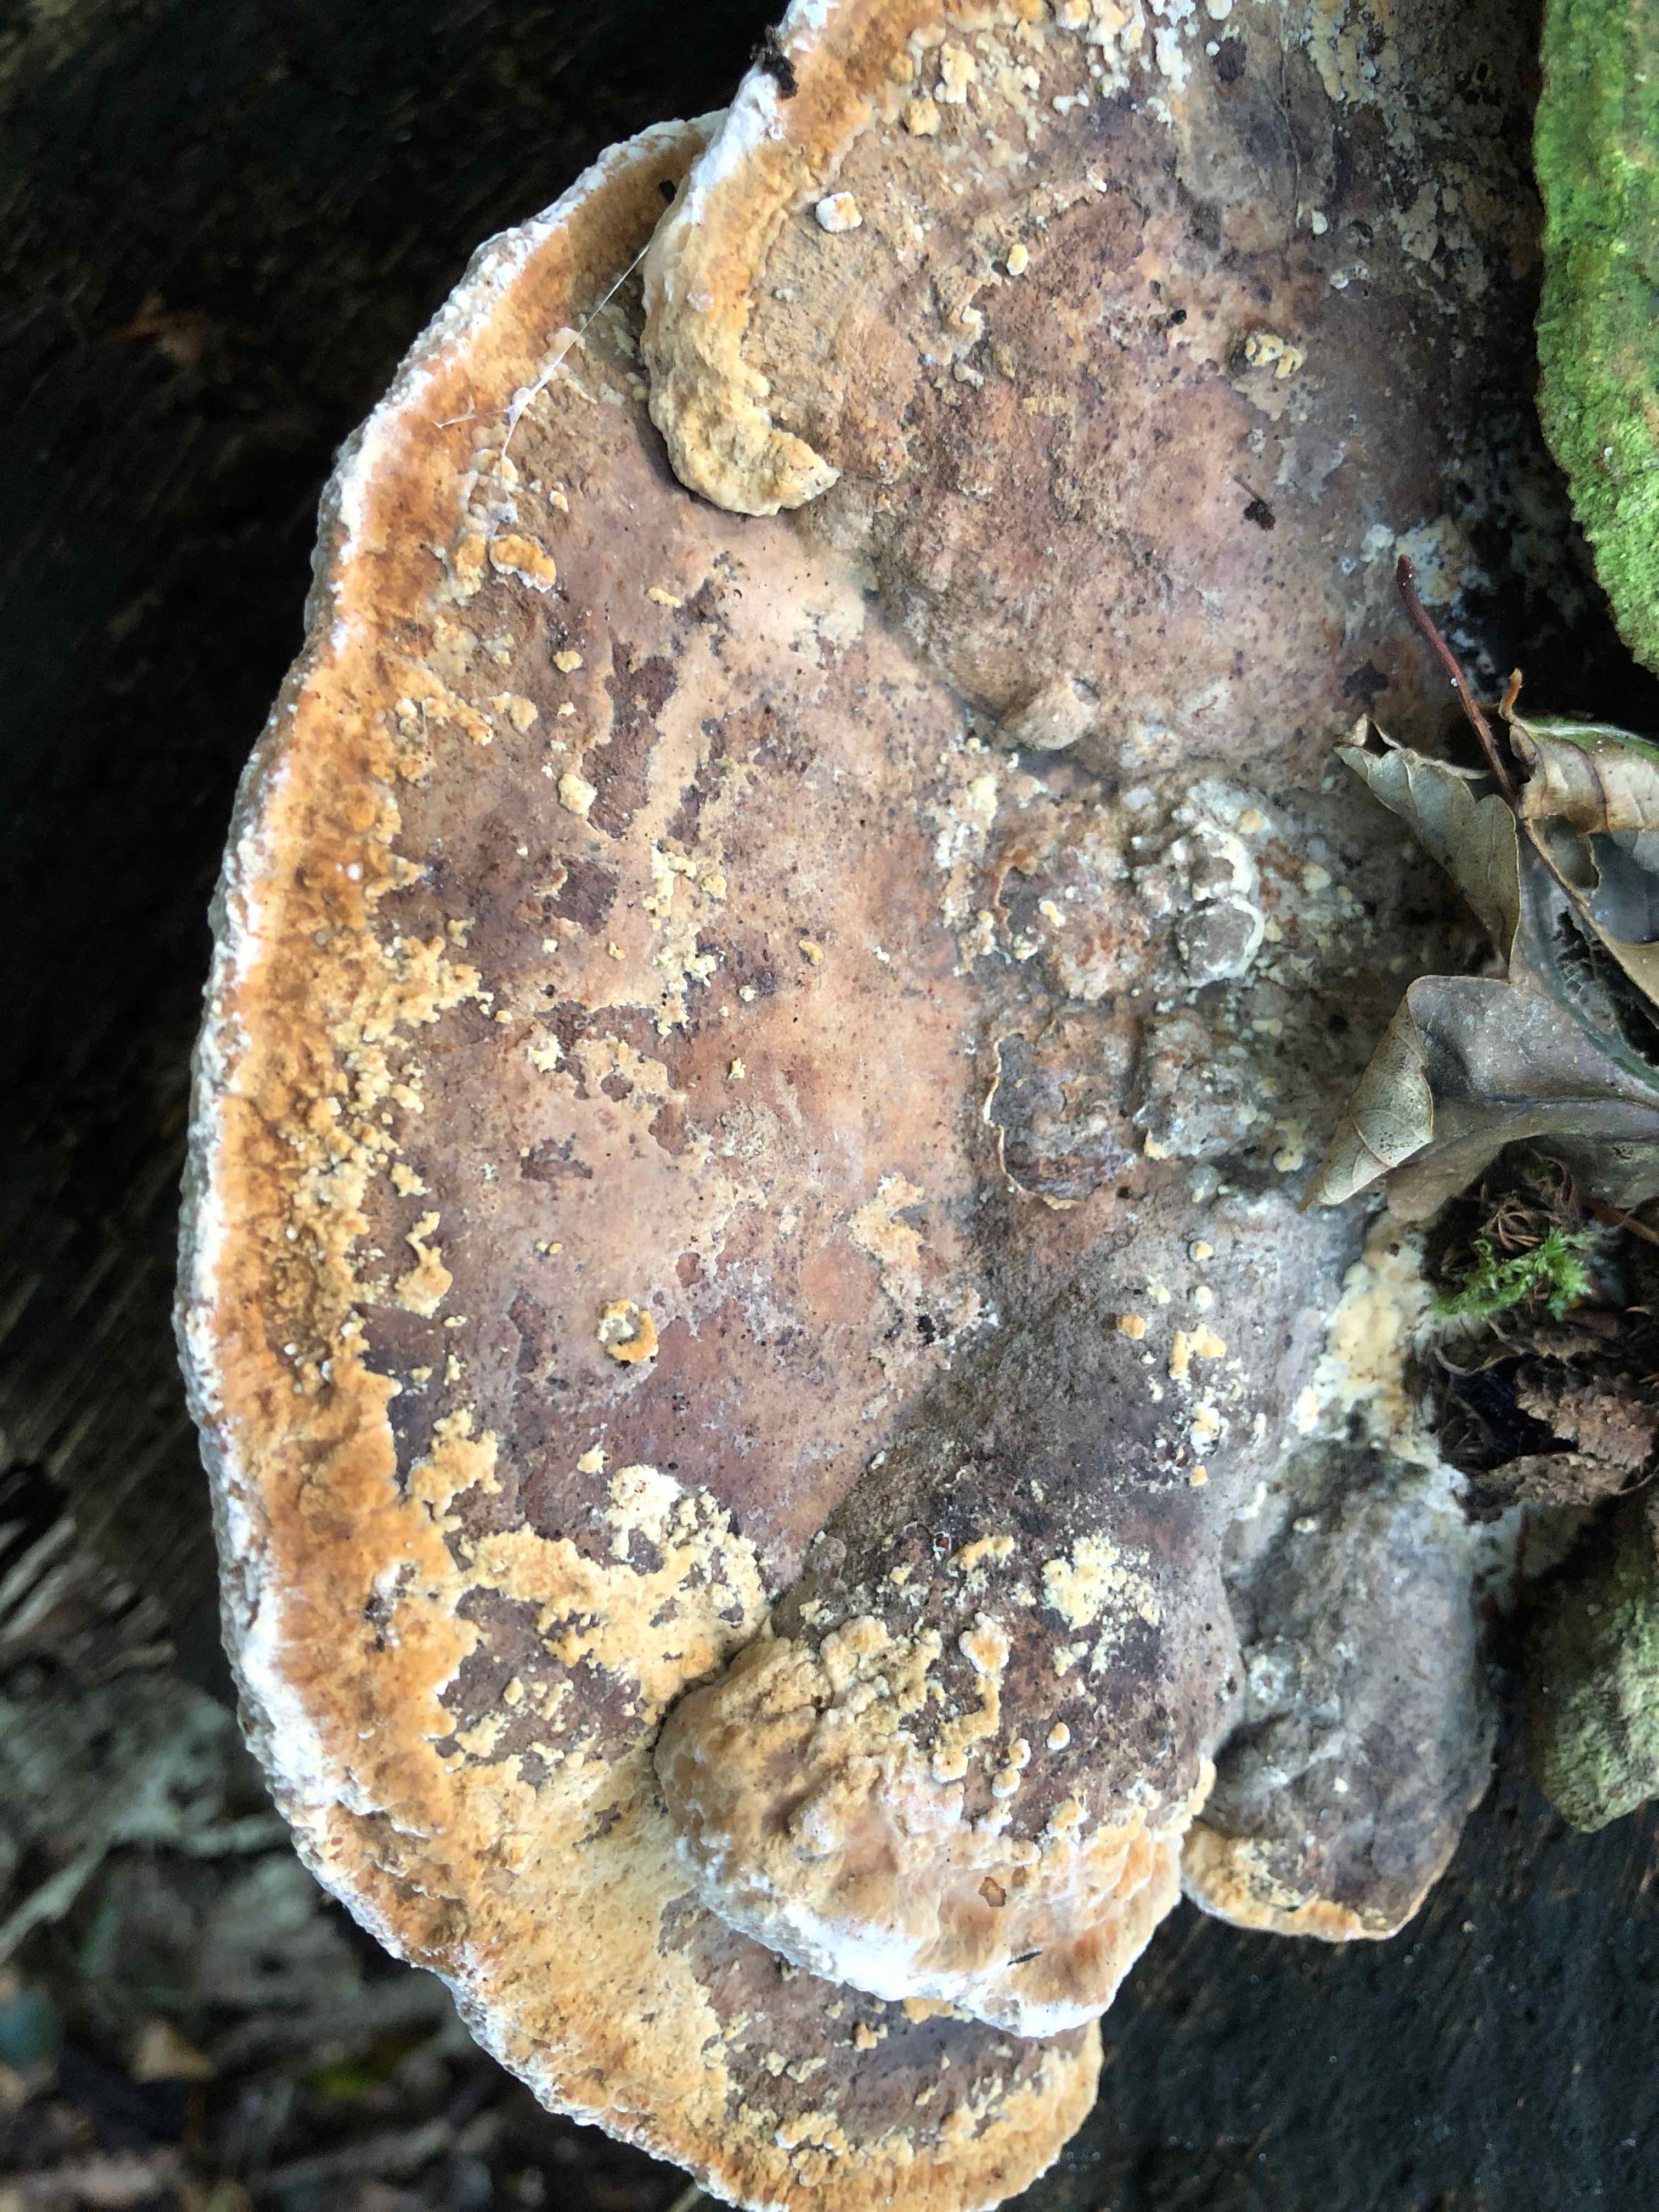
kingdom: Fungi
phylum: Basidiomycota
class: Agaricomycetes
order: Polyporales
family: Fomitopsidaceae
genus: Daedalea
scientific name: Daedalea quercina
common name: ege-labyrintsvamp
